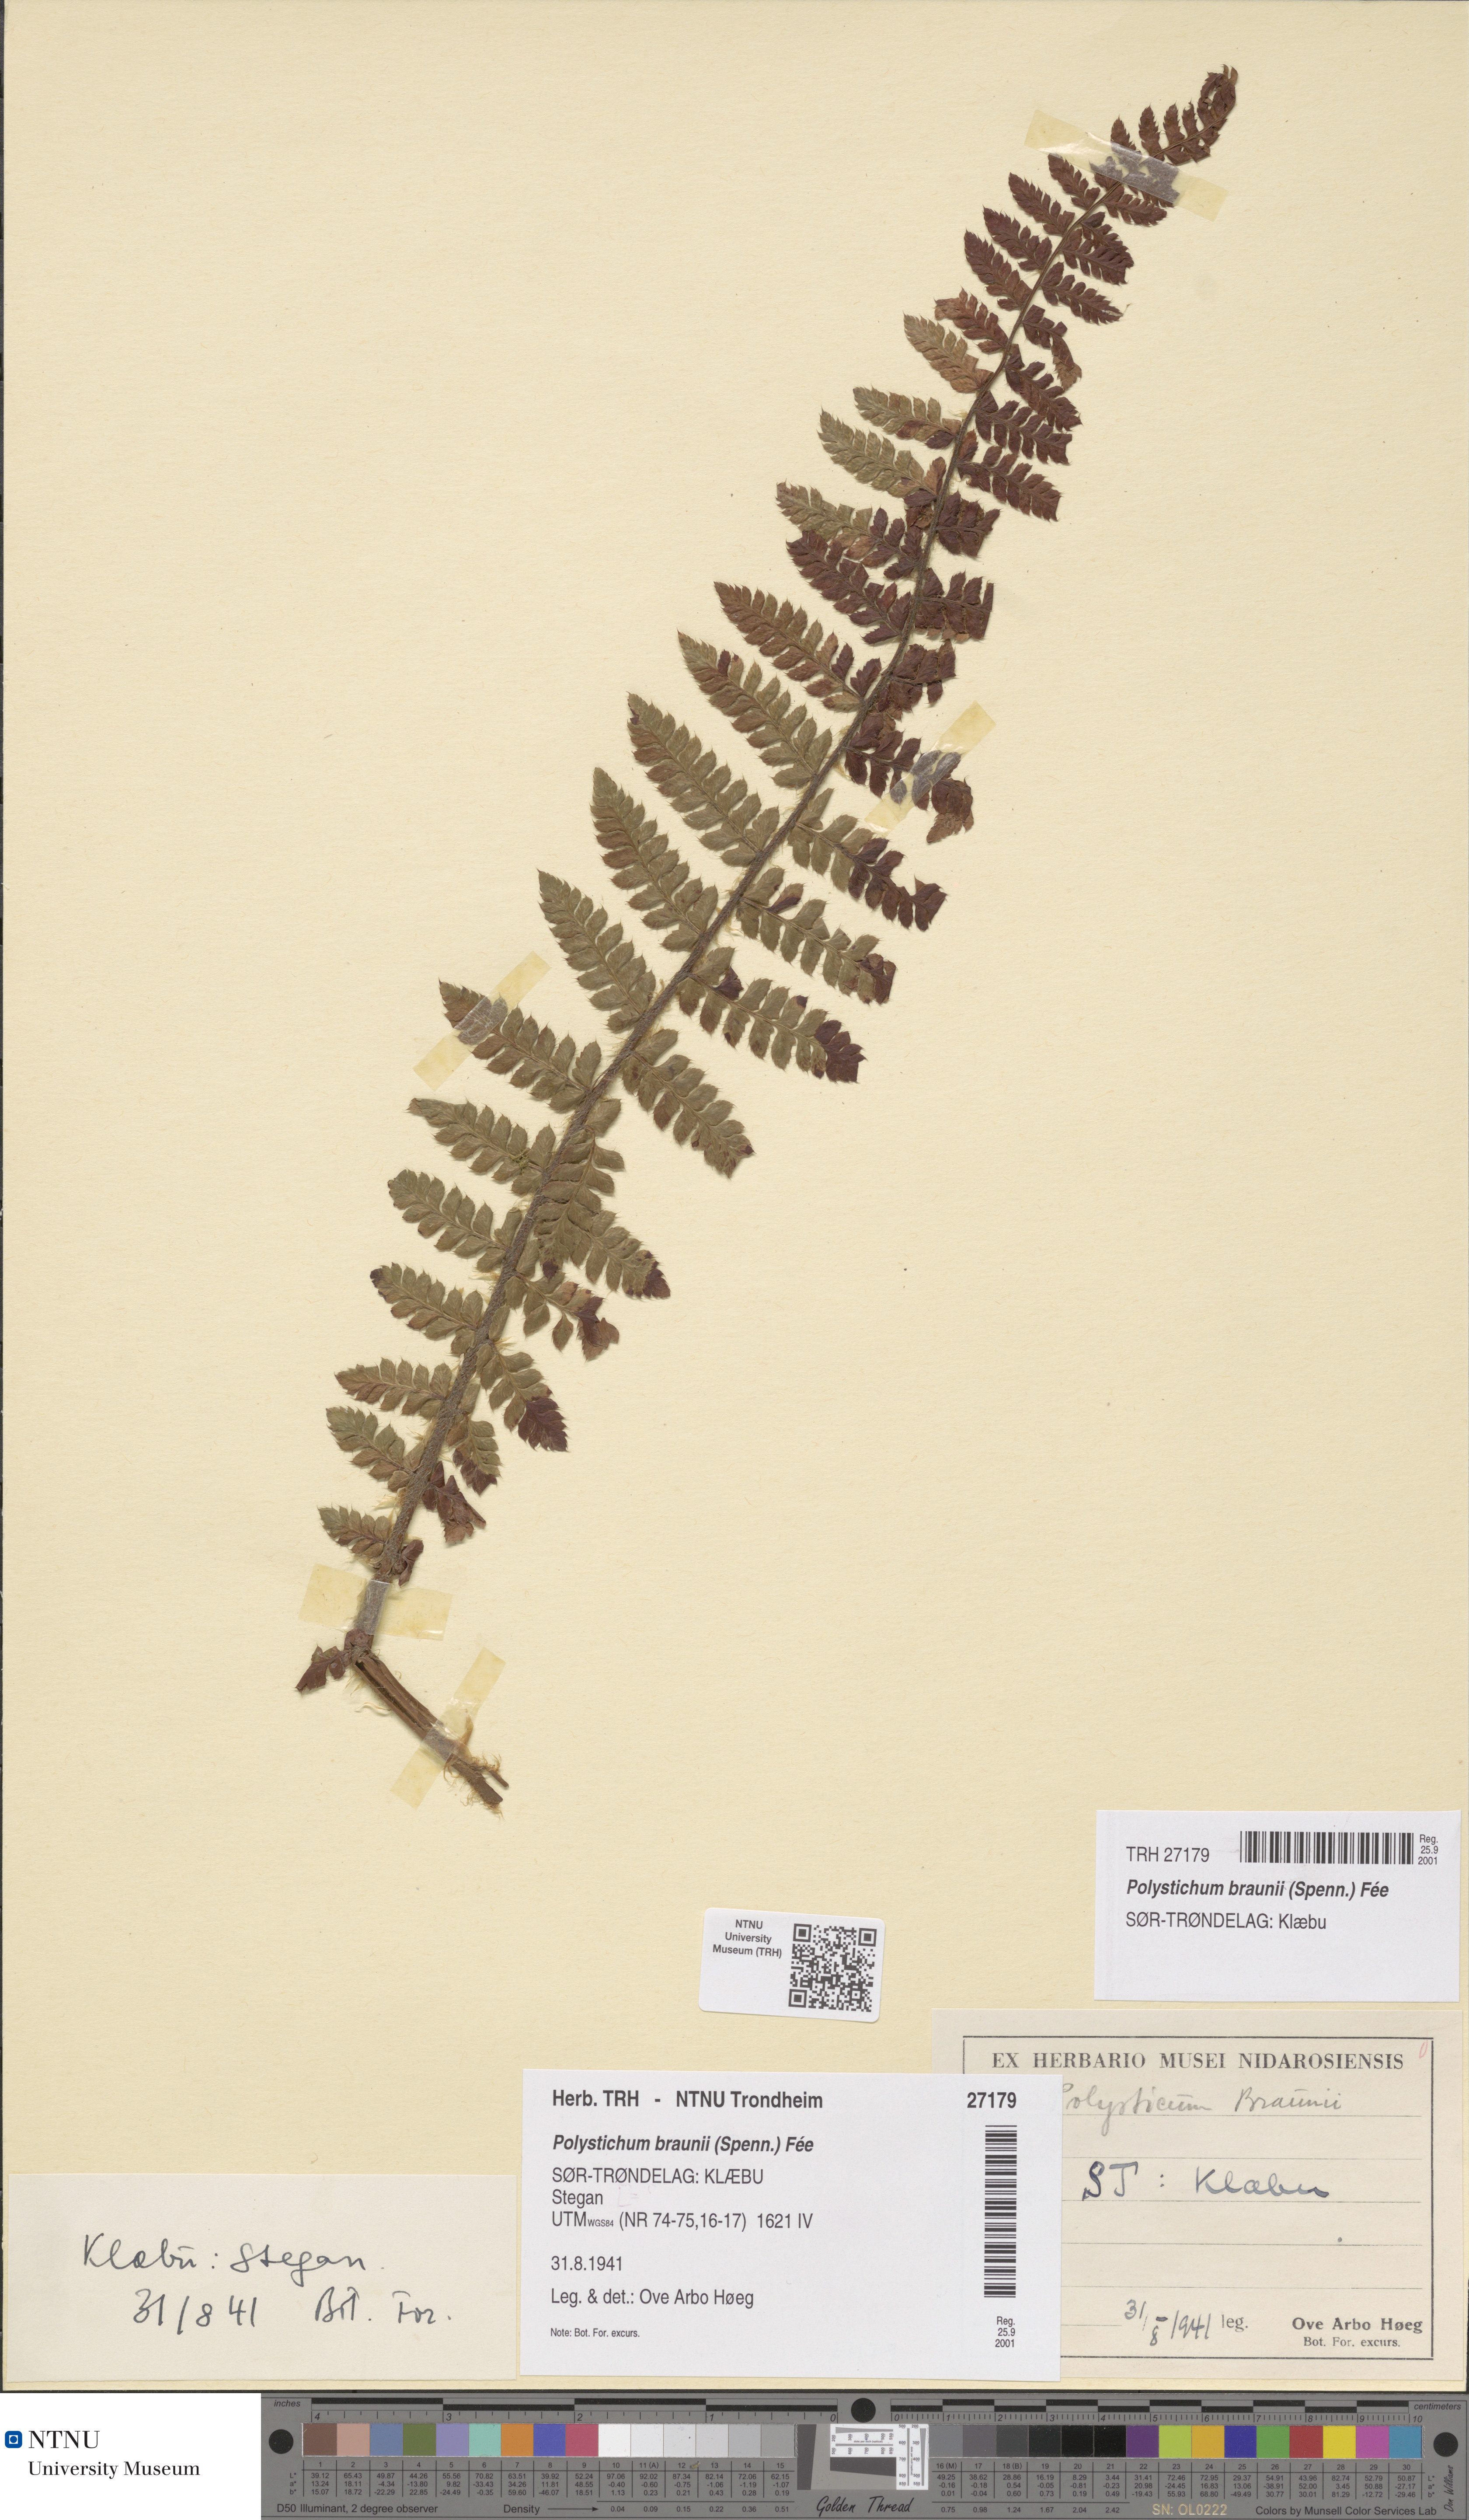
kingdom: Plantae
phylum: Tracheophyta
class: Polypodiopsida
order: Polypodiales
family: Dryopteridaceae
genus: Polystichum
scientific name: Polystichum braunii
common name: Braun's holly fern
